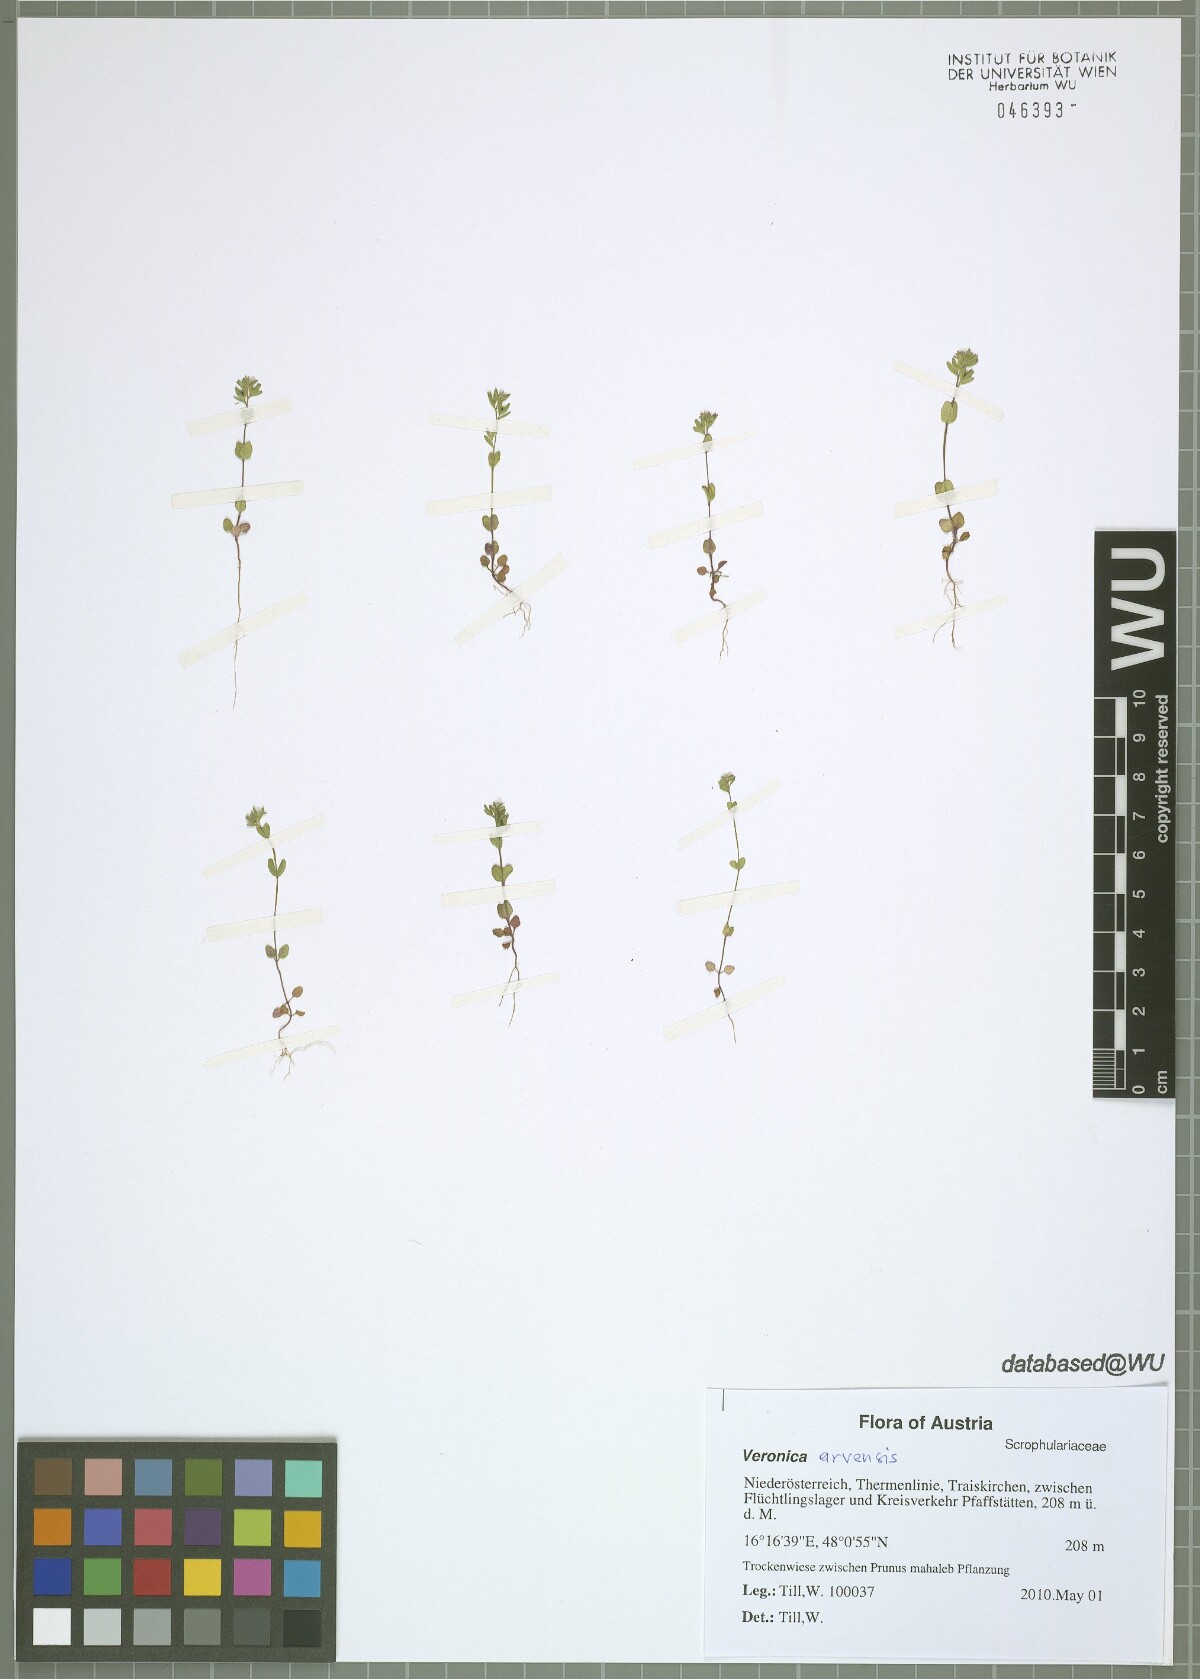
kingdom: Plantae
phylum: Tracheophyta
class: Magnoliopsida
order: Lamiales
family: Plantaginaceae
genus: Veronica
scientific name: Veronica arvensis
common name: Corn speedwell
